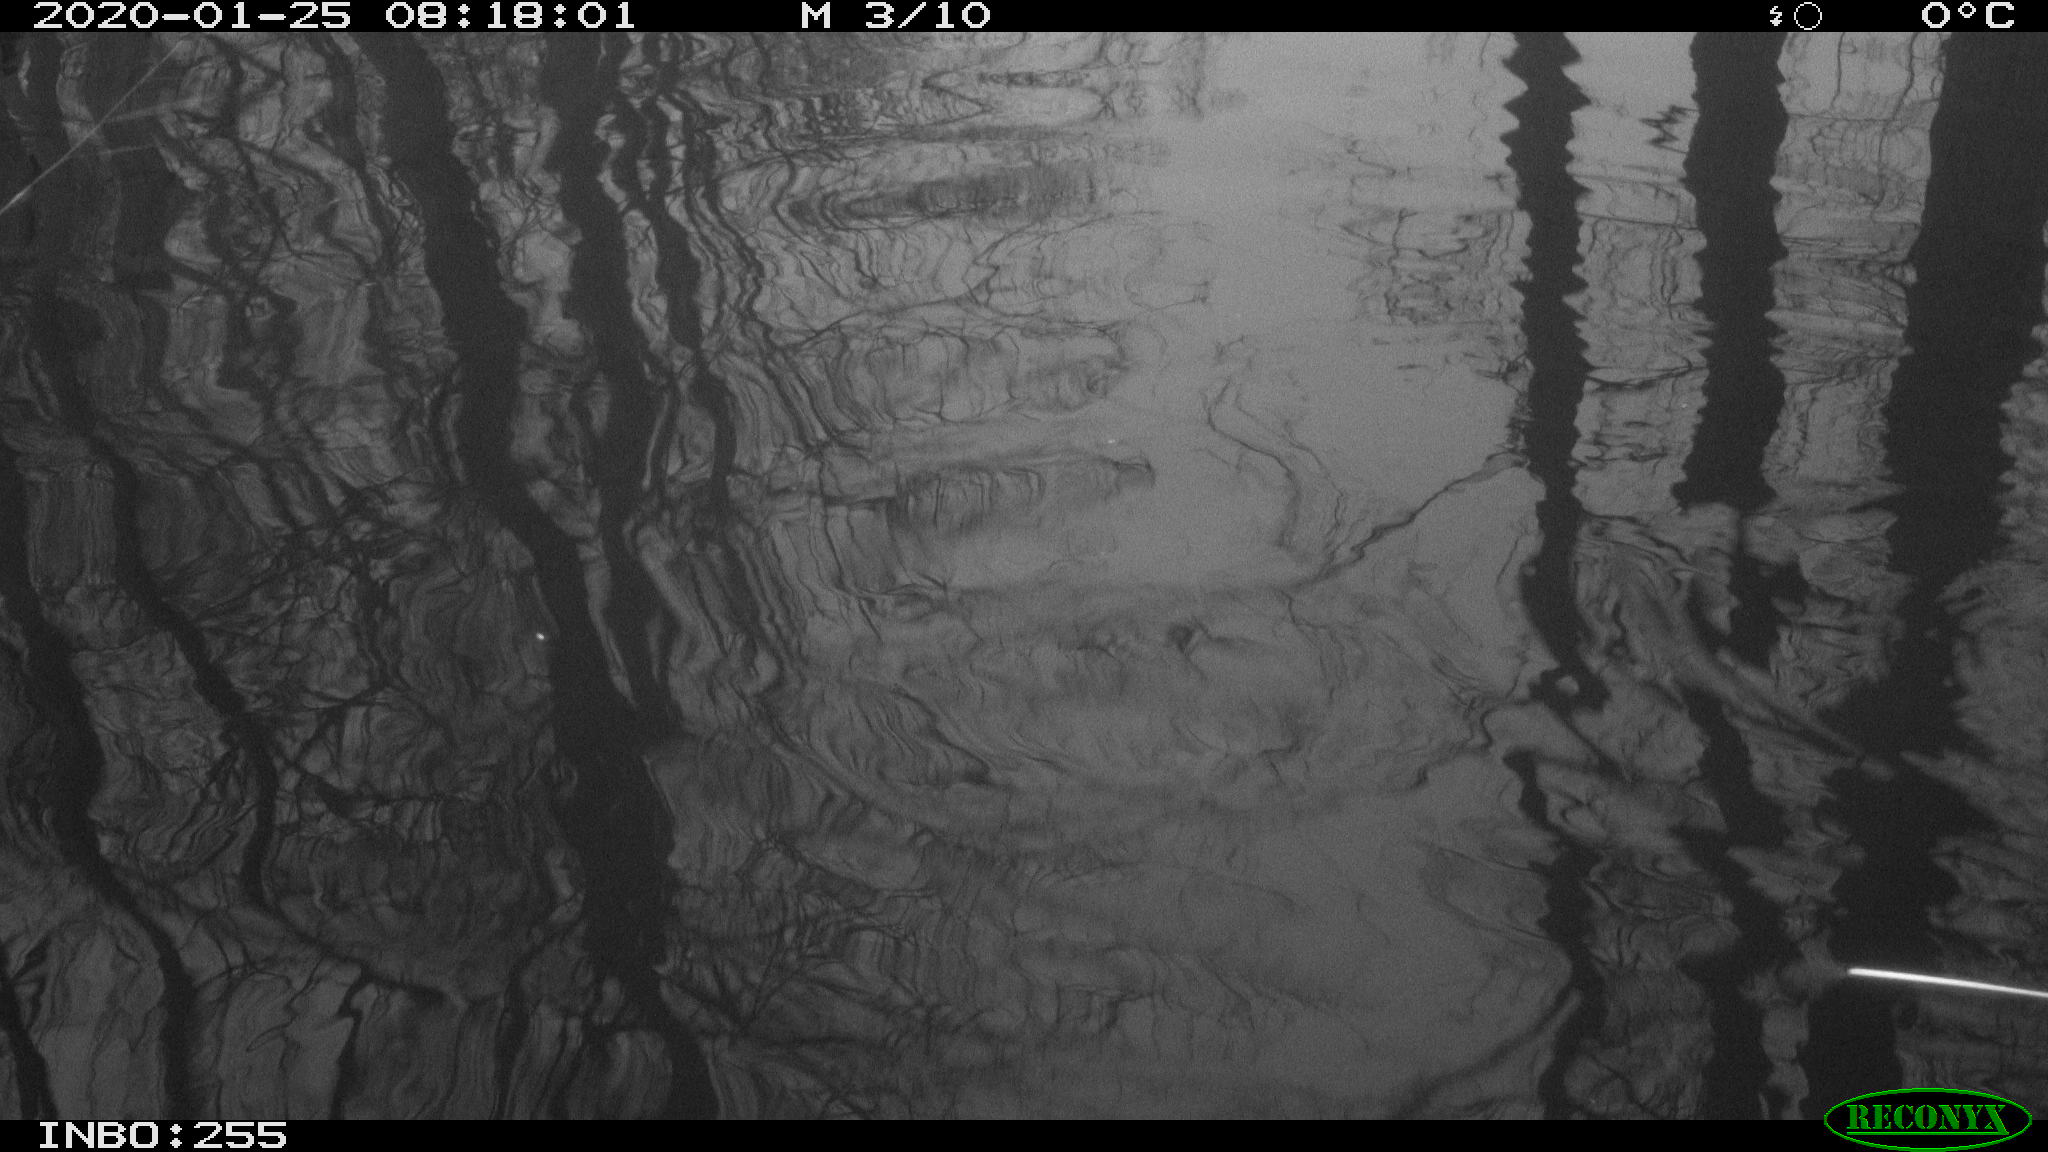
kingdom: Animalia
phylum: Chordata
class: Aves
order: Gruiformes
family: Rallidae
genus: Gallinula
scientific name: Gallinula chloropus
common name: Common moorhen
